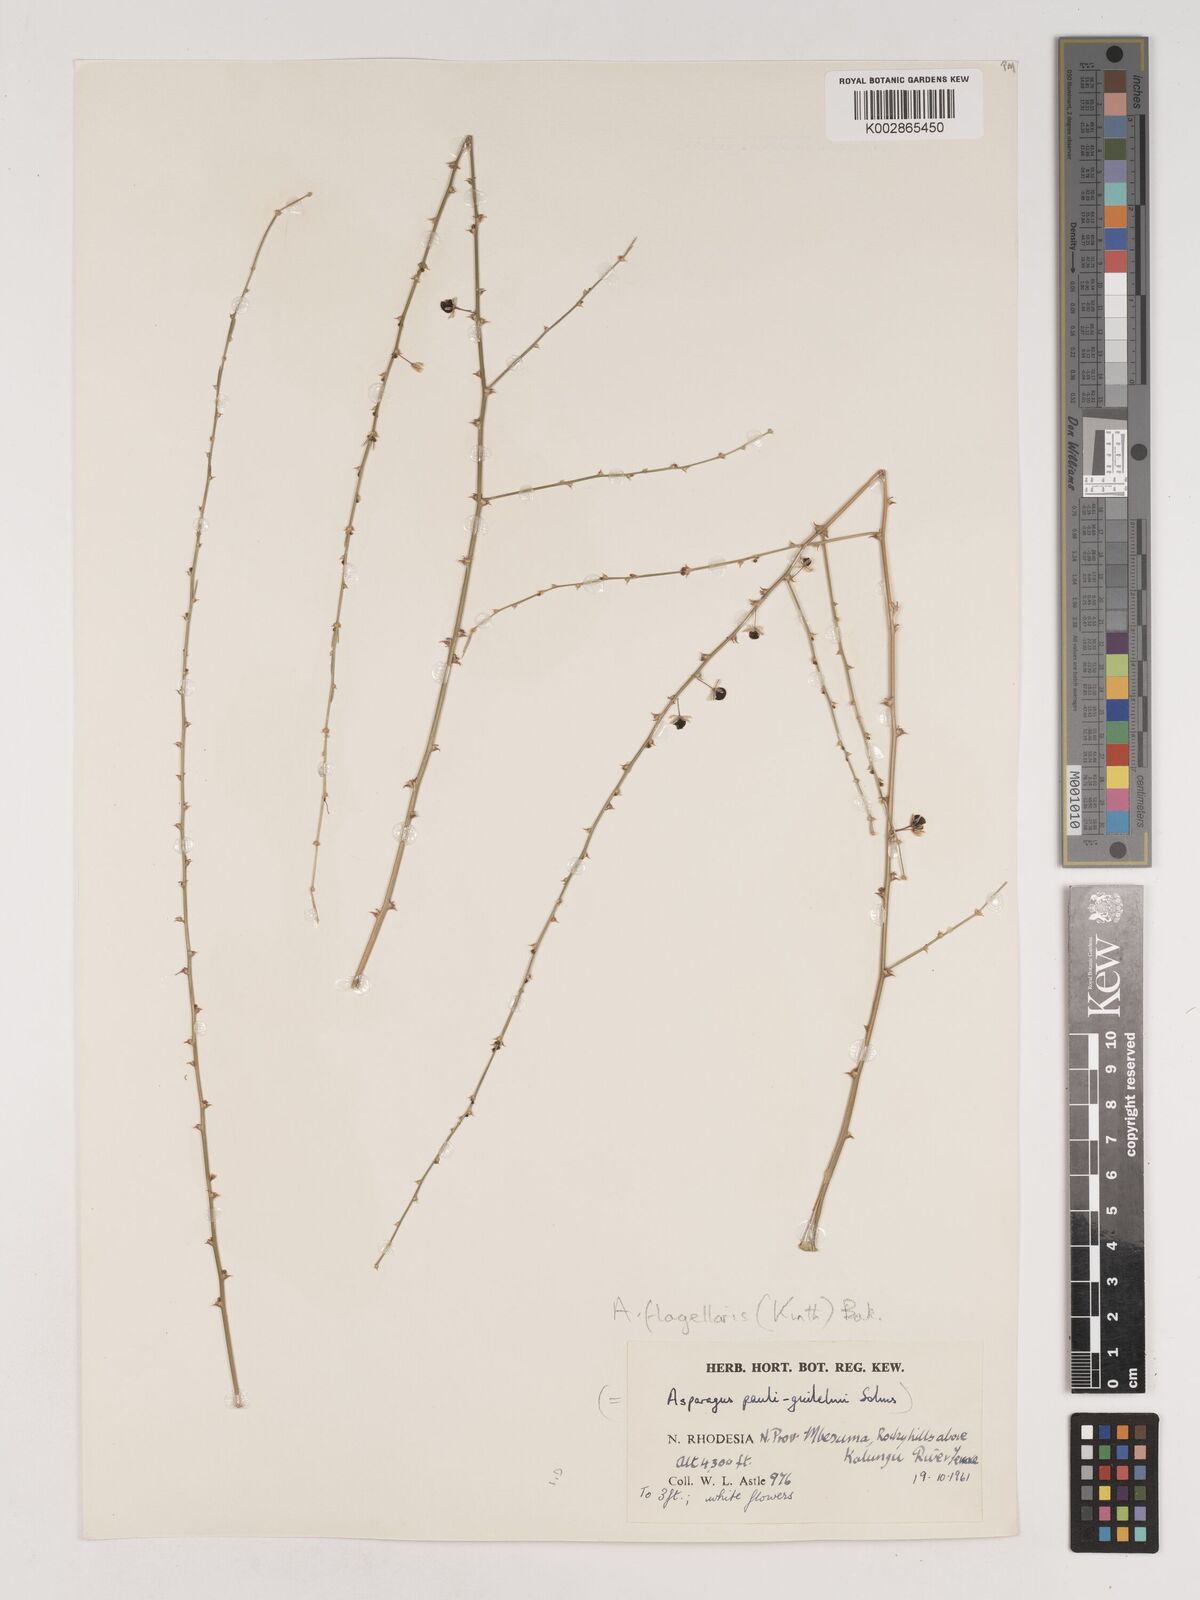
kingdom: Plantae
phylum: Tracheophyta
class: Liliopsida
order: Asparagales
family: Asparagaceae
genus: Asparagus
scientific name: Asparagus flagellaris
